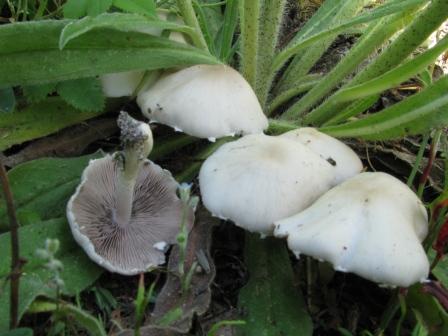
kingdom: Fungi
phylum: Basidiomycota
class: Agaricomycetes
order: Agaricales
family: Psathyrellaceae
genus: Candolleomyces
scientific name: Candolleomyces candolleanus
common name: Candolles mørkhat
